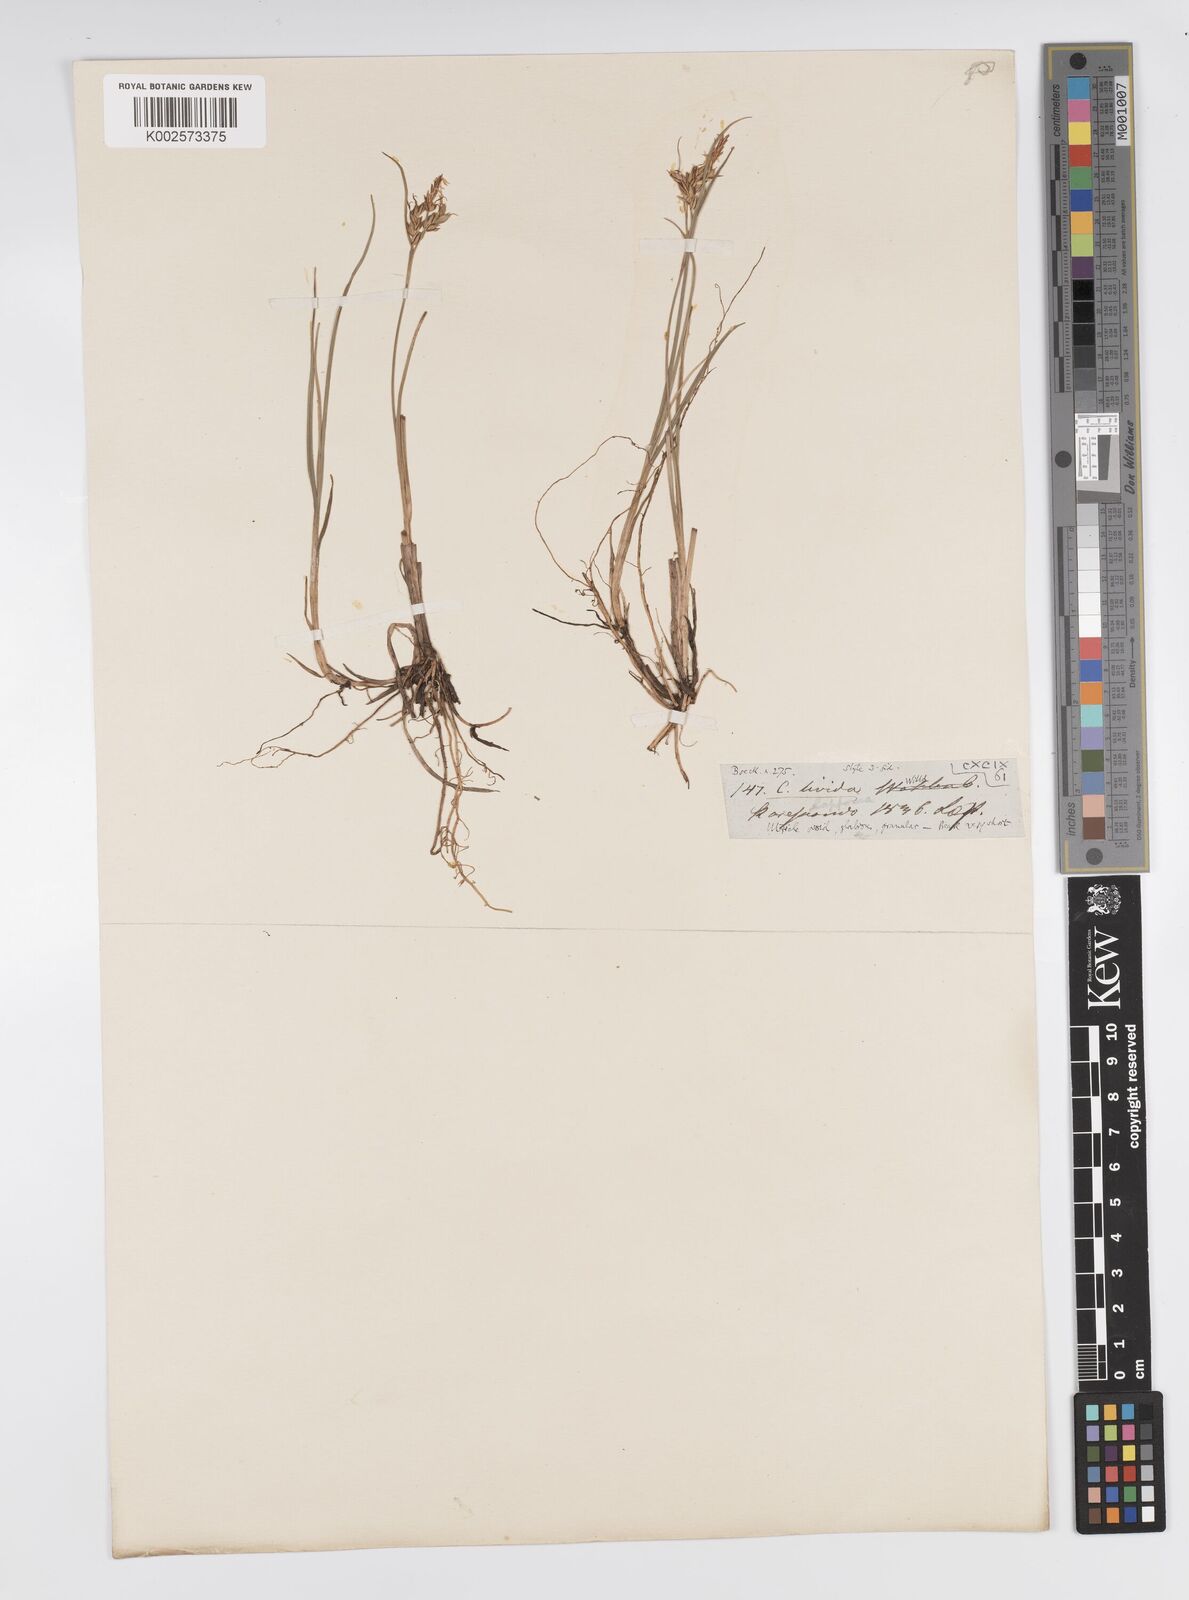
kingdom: Plantae
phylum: Tracheophyta
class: Liliopsida
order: Poales
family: Cyperaceae
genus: Carex
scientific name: Carex livida
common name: Livid sedge
